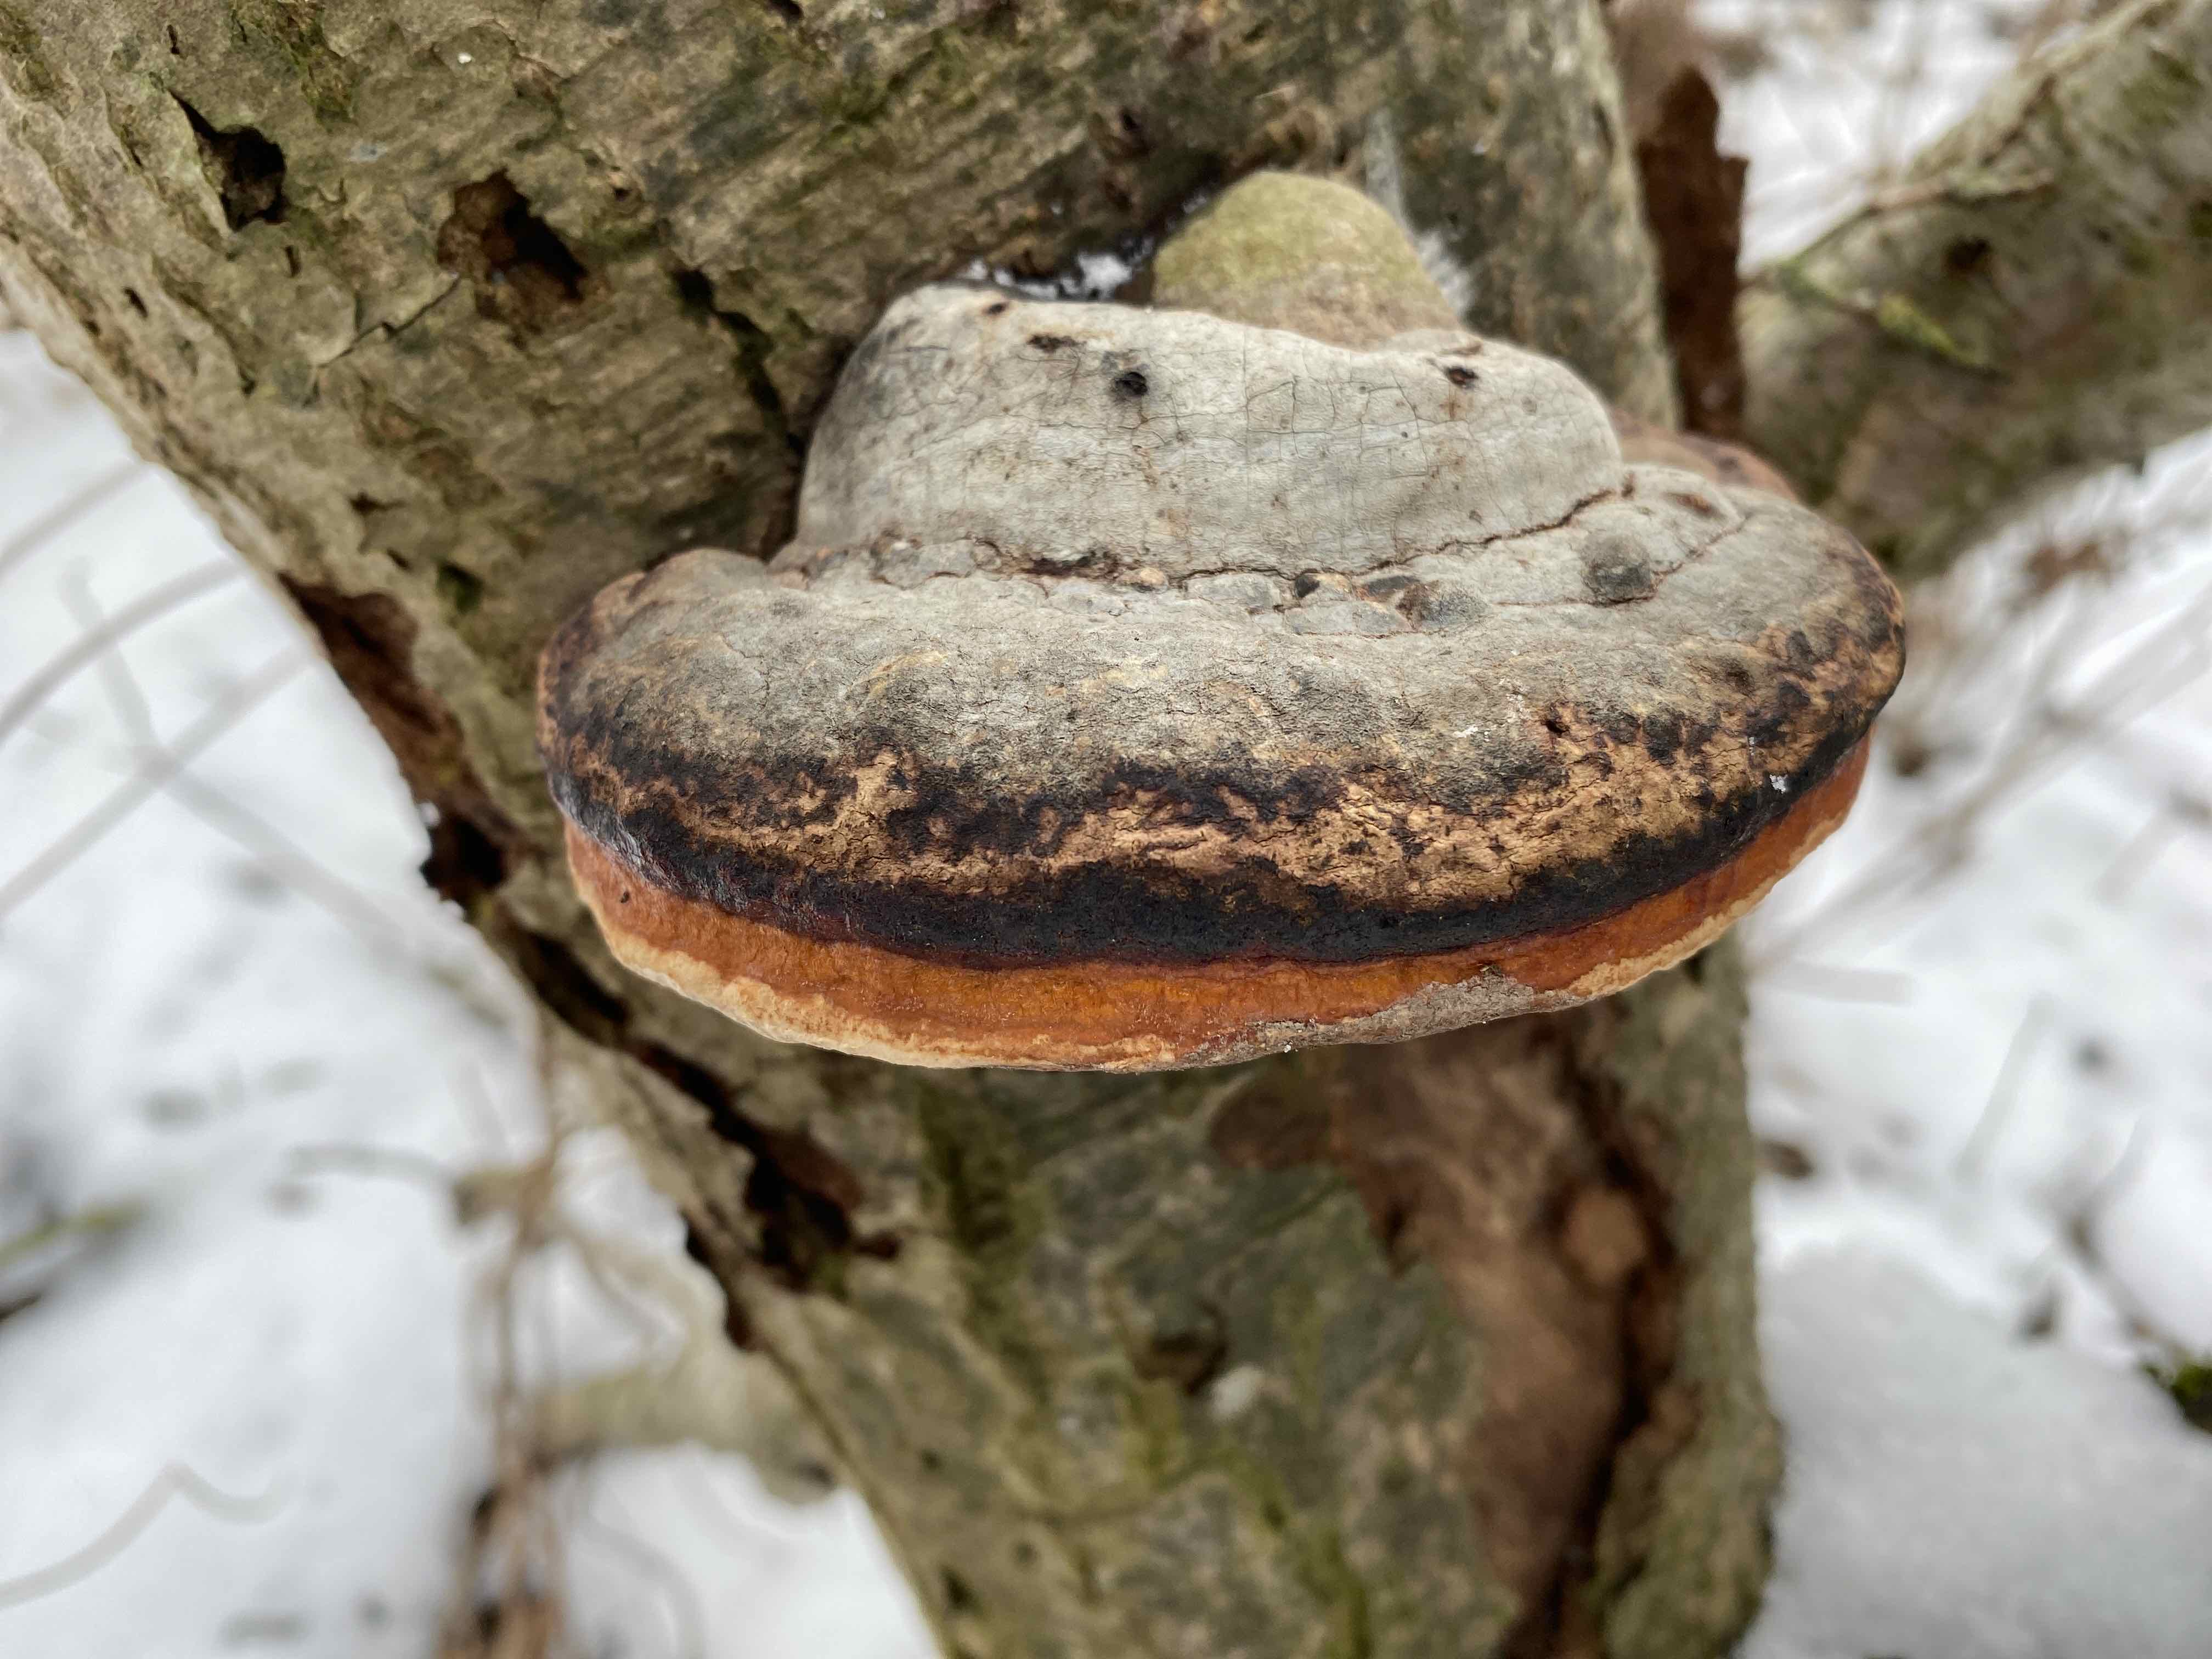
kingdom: Fungi
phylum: Basidiomycota
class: Agaricomycetes
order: Polyporales
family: Fomitopsidaceae
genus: Fomitopsis
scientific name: Fomitopsis pinicola
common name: randbæltet hovporesvamp
